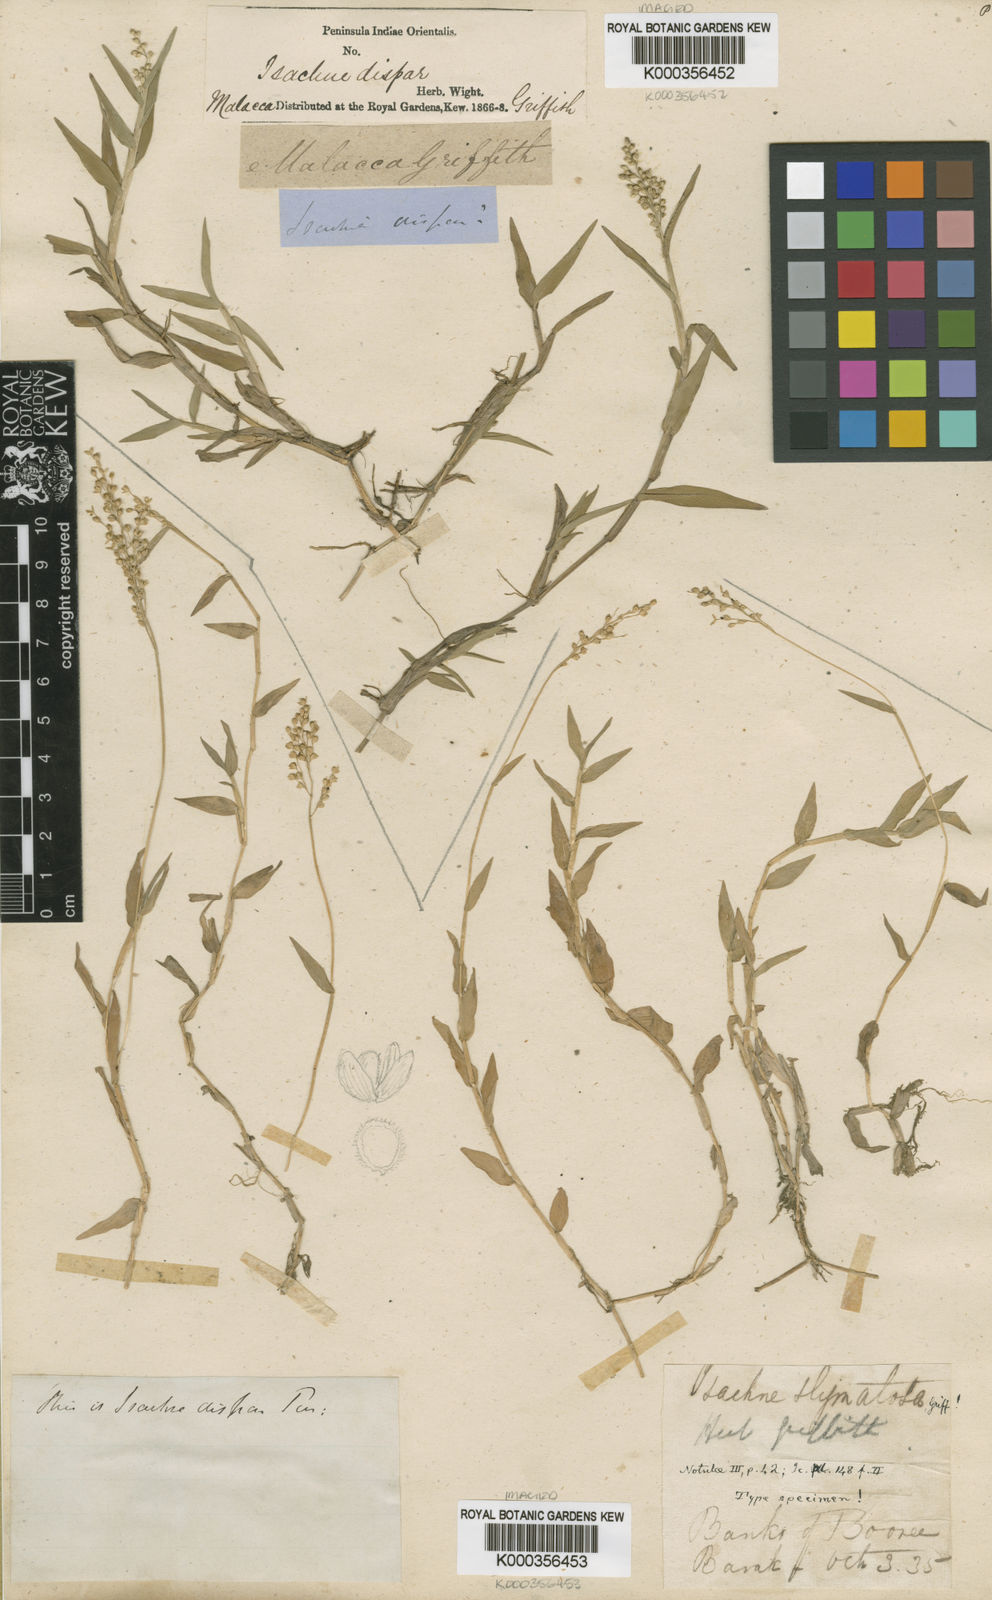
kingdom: Plantae
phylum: Tracheophyta
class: Liliopsida
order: Poales
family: Poaceae
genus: Isachne
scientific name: Isachne globosa
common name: Swamp millet
